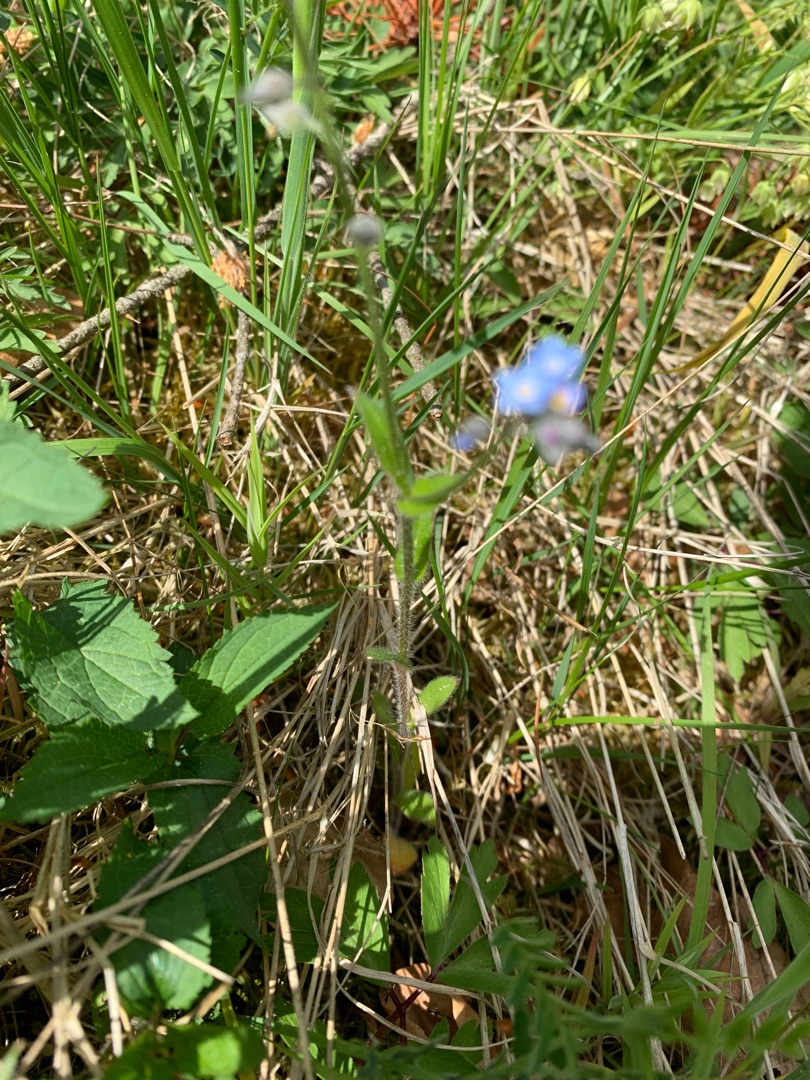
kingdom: Plantae
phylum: Tracheophyta
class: Magnoliopsida
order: Boraginales
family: Boraginaceae
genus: Myosotis
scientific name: Myosotis arvensis
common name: Mark-forglemmigej
